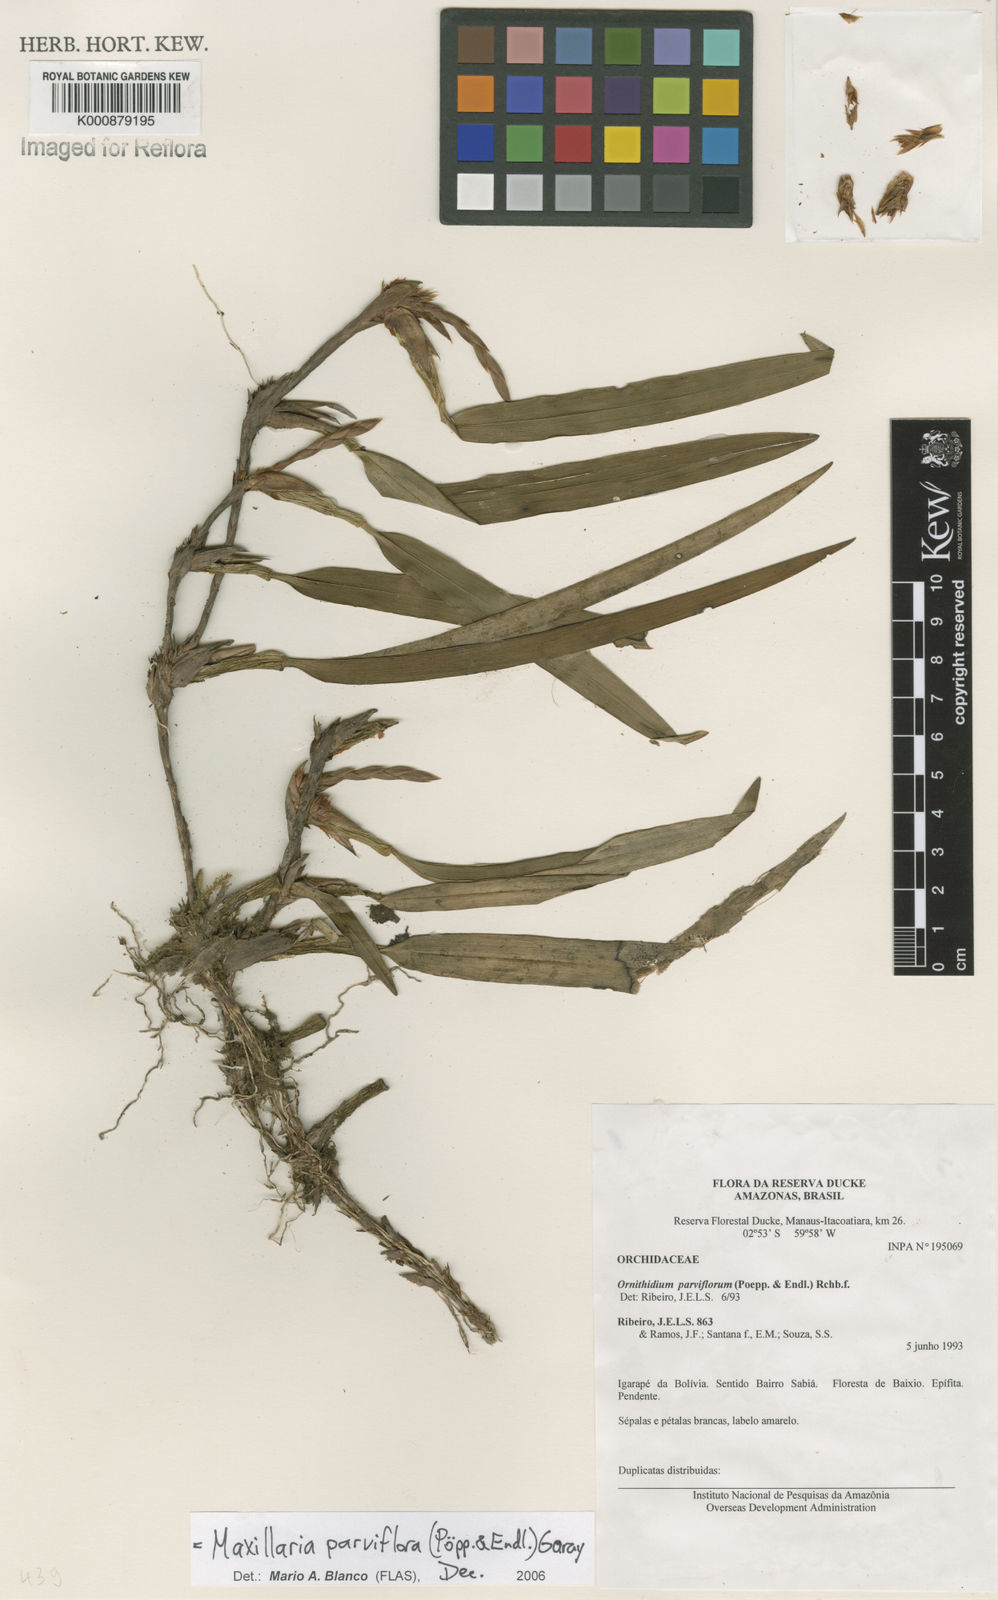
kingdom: Plantae
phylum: Tracheophyta
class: Liliopsida
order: Asparagales
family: Orchidaceae
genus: Maxillaria
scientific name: Maxillaria parviflora
